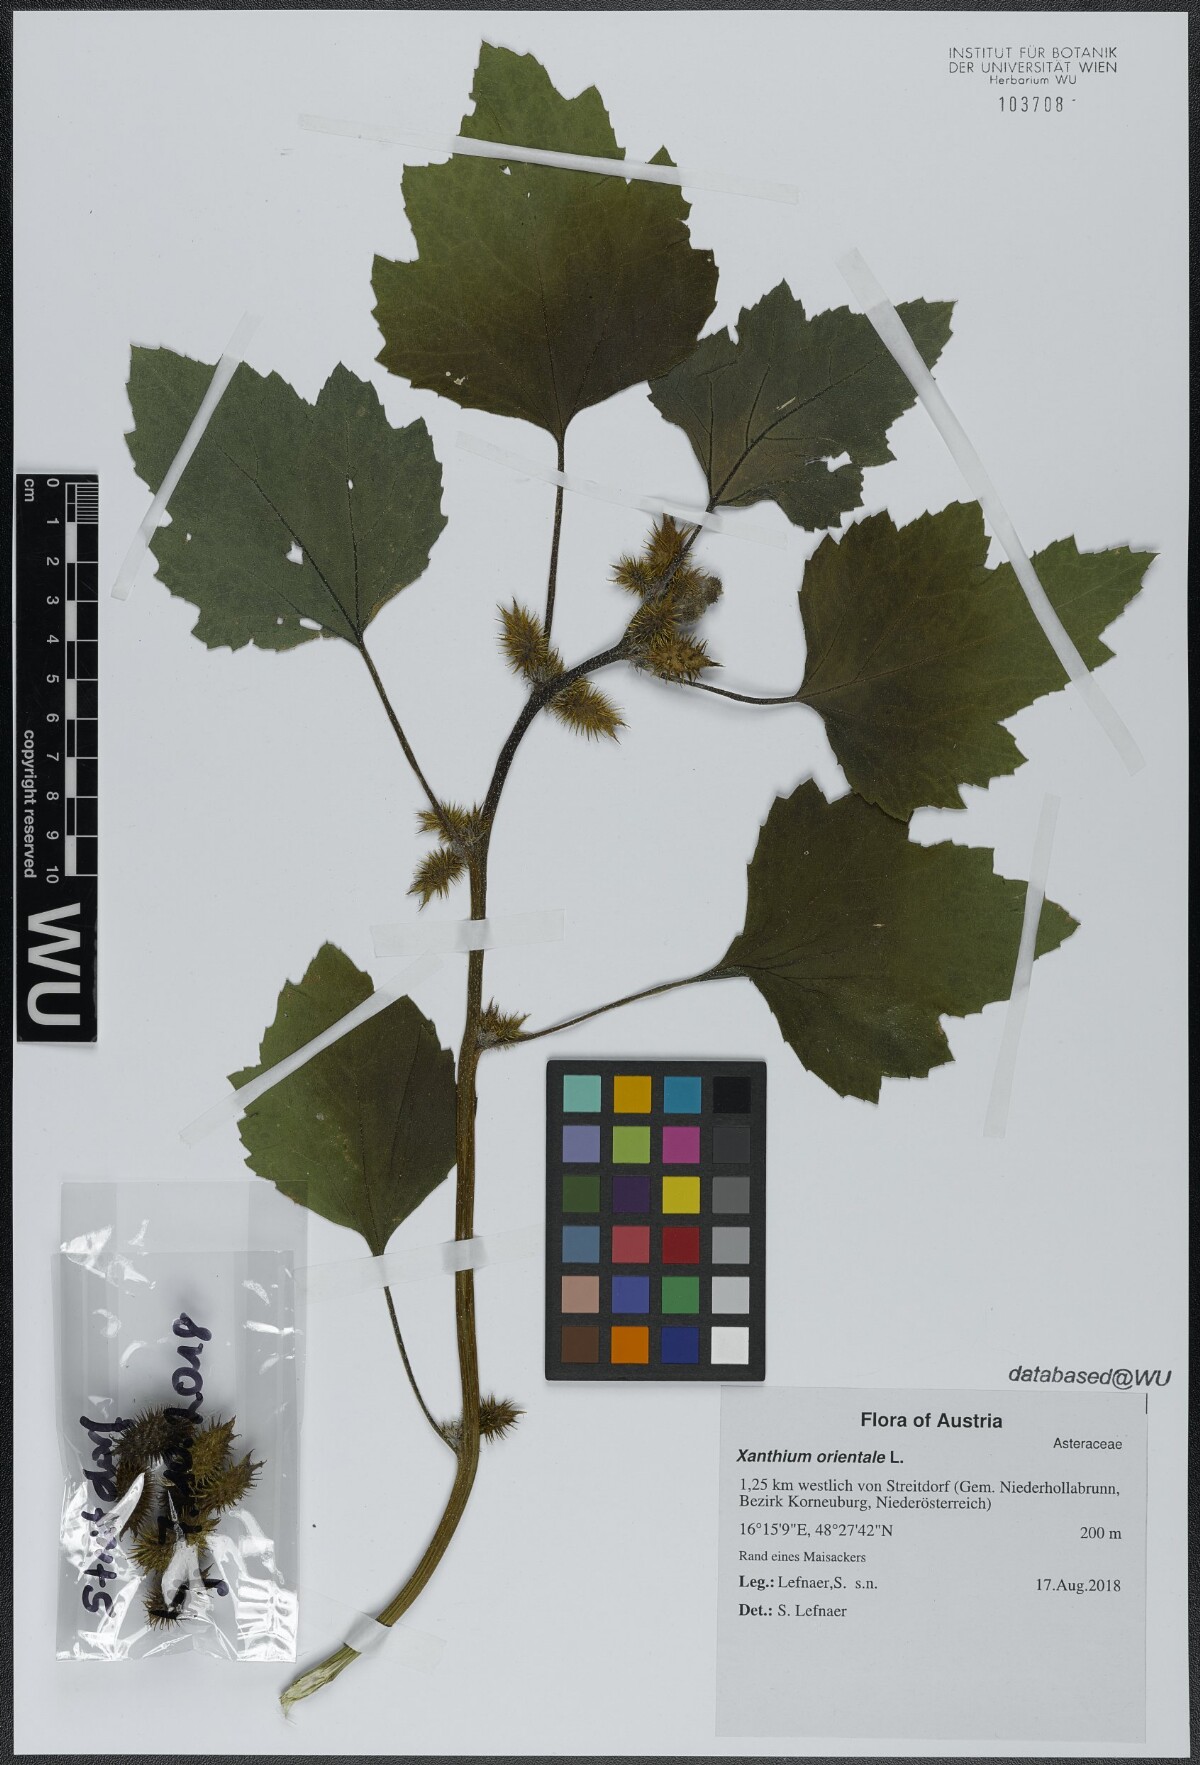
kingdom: Plantae
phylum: Tracheophyta
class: Magnoliopsida
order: Asterales
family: Asteraceae
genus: Xanthium
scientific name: Xanthium orientale
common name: Californian burr
